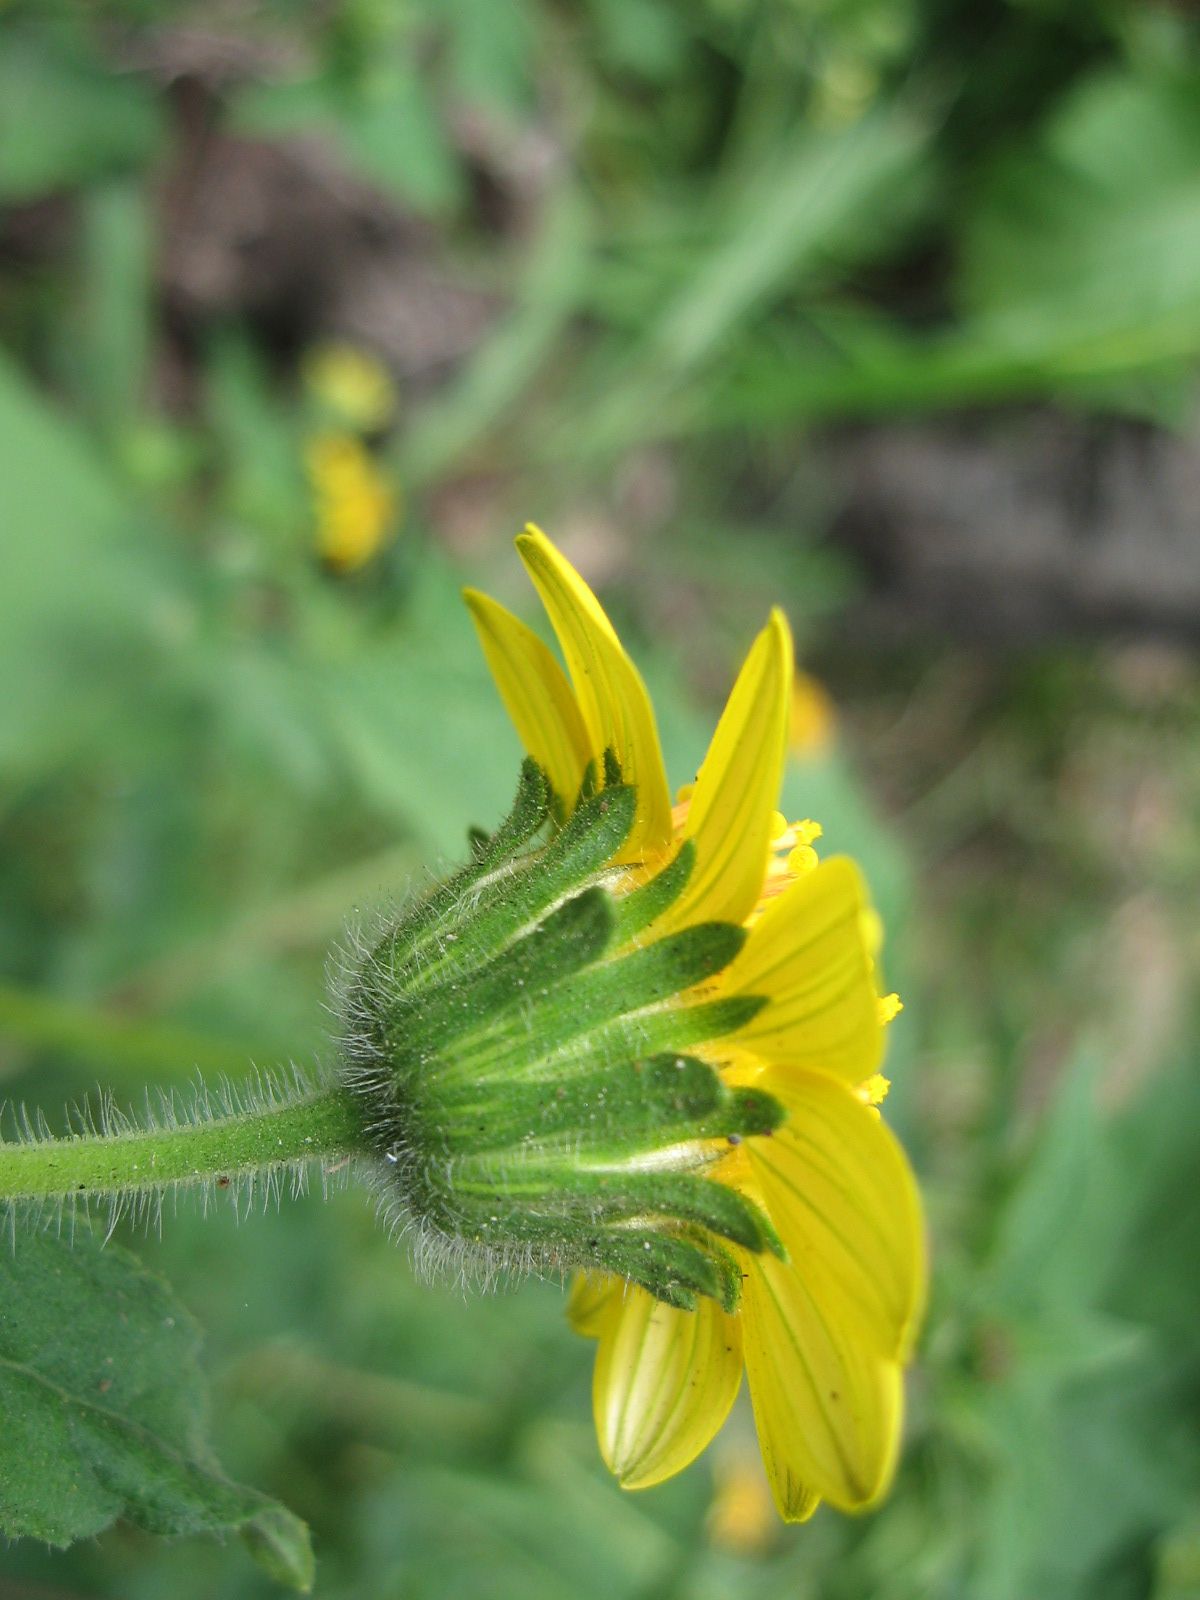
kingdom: Plantae
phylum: Tracheophyta
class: Magnoliopsida
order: Asterales
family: Asteraceae
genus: Simsia
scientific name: Simsia foetida
